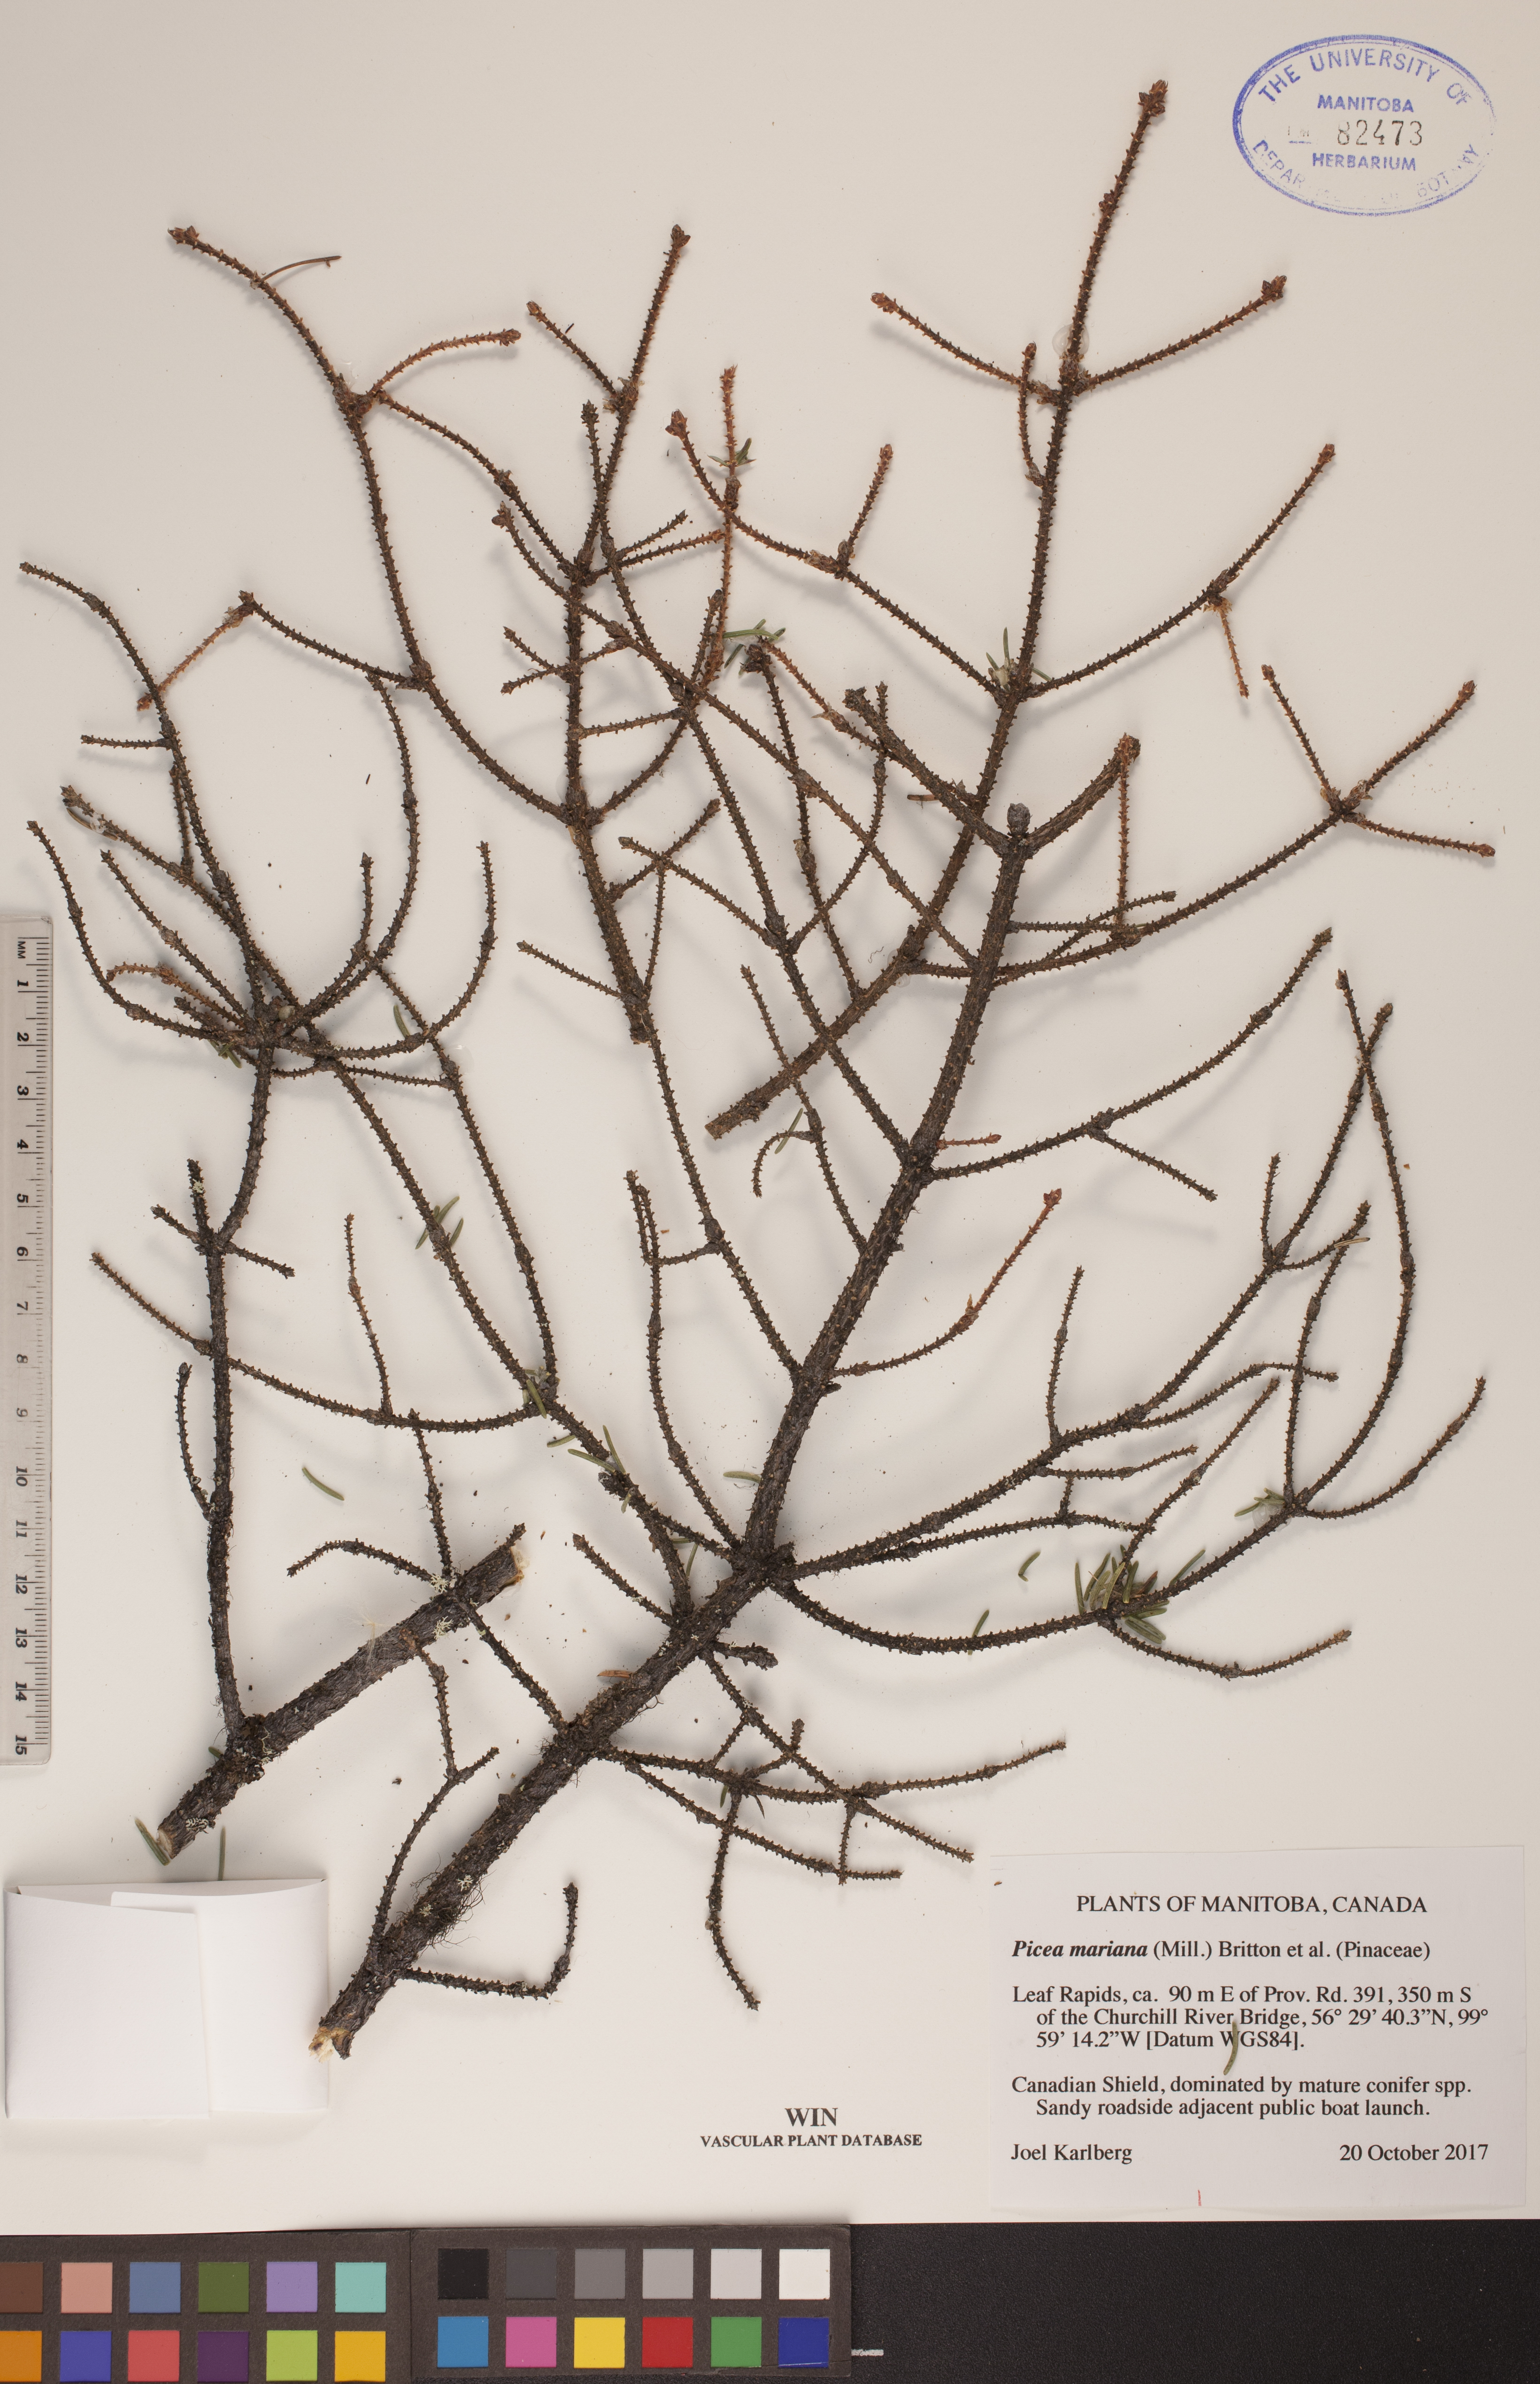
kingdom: Plantae
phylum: Tracheophyta
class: Pinopsida
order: Pinales
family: Pinaceae
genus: Picea
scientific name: Picea mariana
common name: Black spruce
